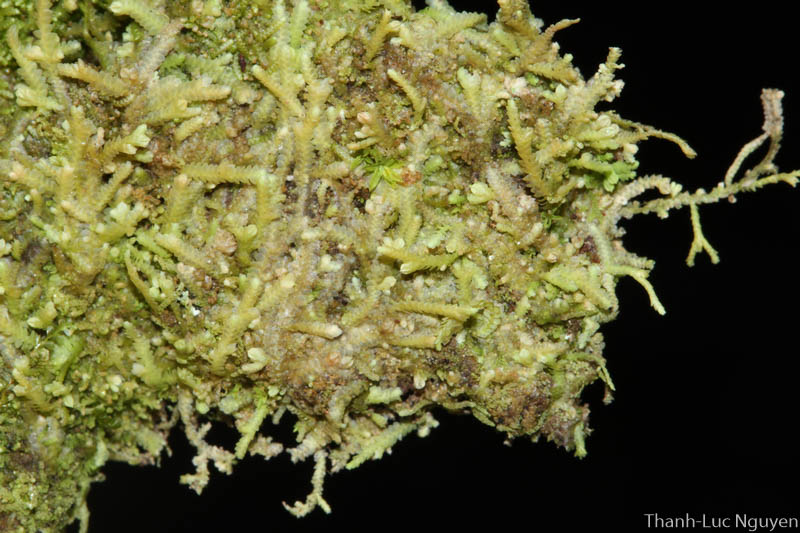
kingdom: Plantae
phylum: Marchantiophyta
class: Jungermanniopsida
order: Porellales
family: Lejeuneaceae
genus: Lejeunea
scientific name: Lejeunea
